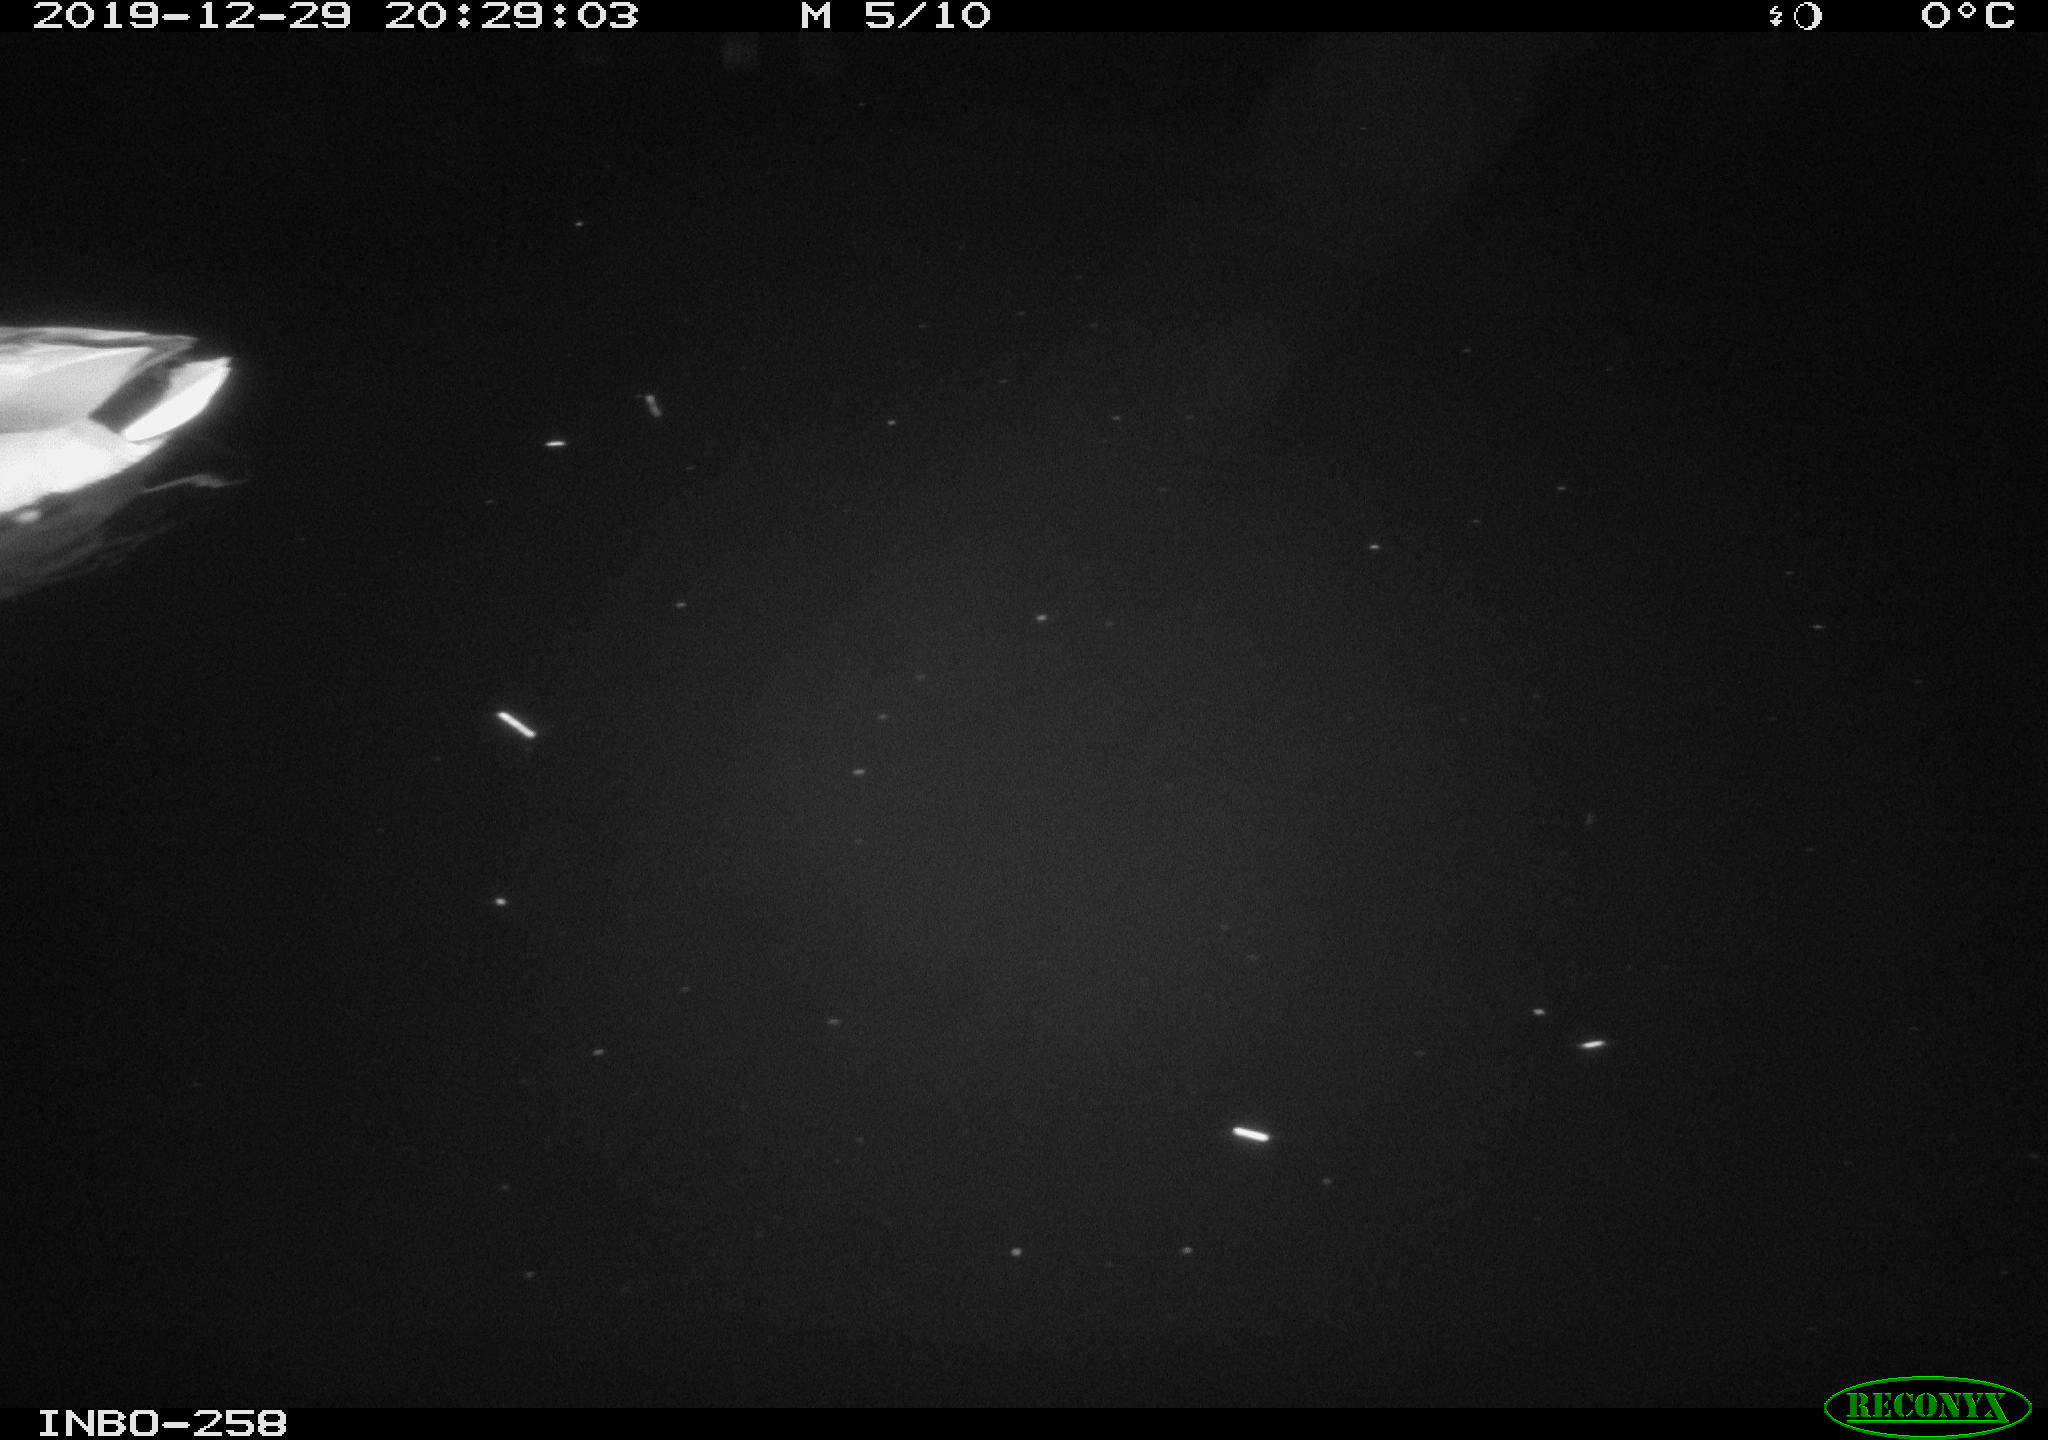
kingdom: Animalia
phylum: Chordata
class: Aves
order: Anseriformes
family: Anatidae
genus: Anas
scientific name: Anas platyrhynchos
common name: Mallard
